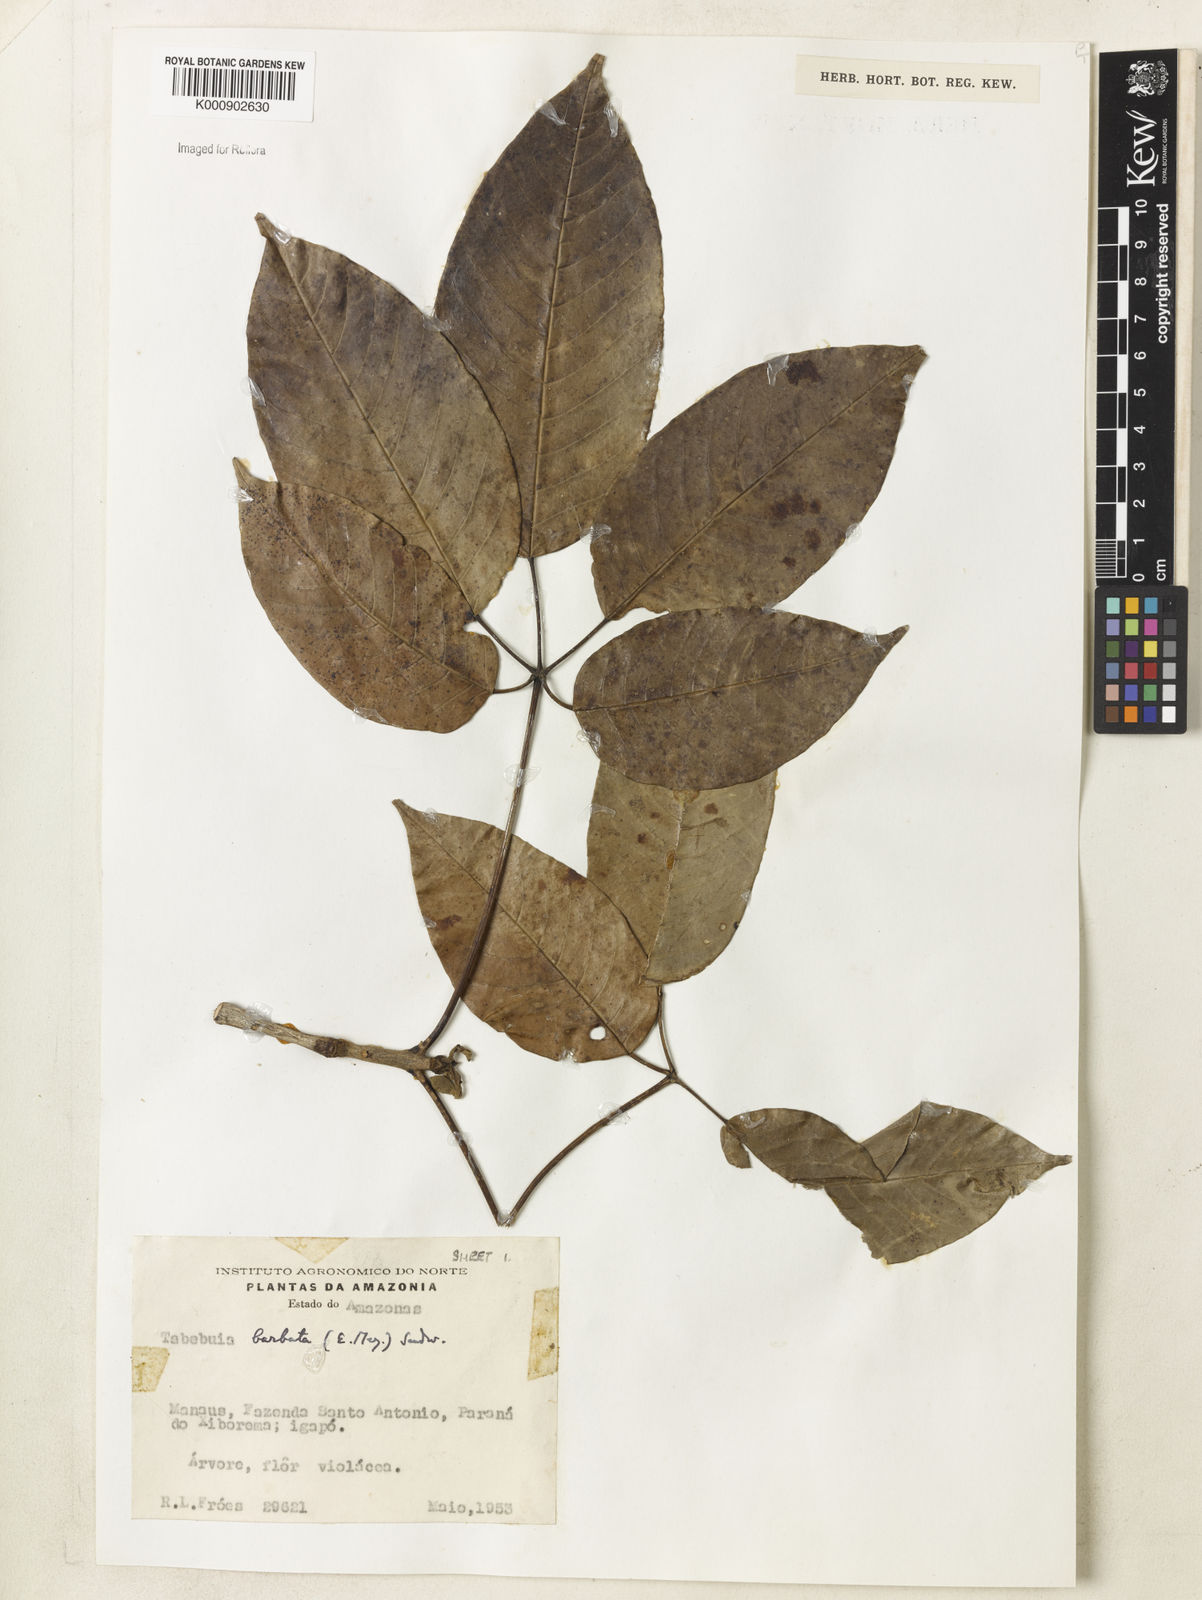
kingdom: Plantae
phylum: Tracheophyta
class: Magnoliopsida
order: Lamiales
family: Bignoniaceae
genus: Handroanthus
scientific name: Handroanthus barbatus
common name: Trumpet trees
